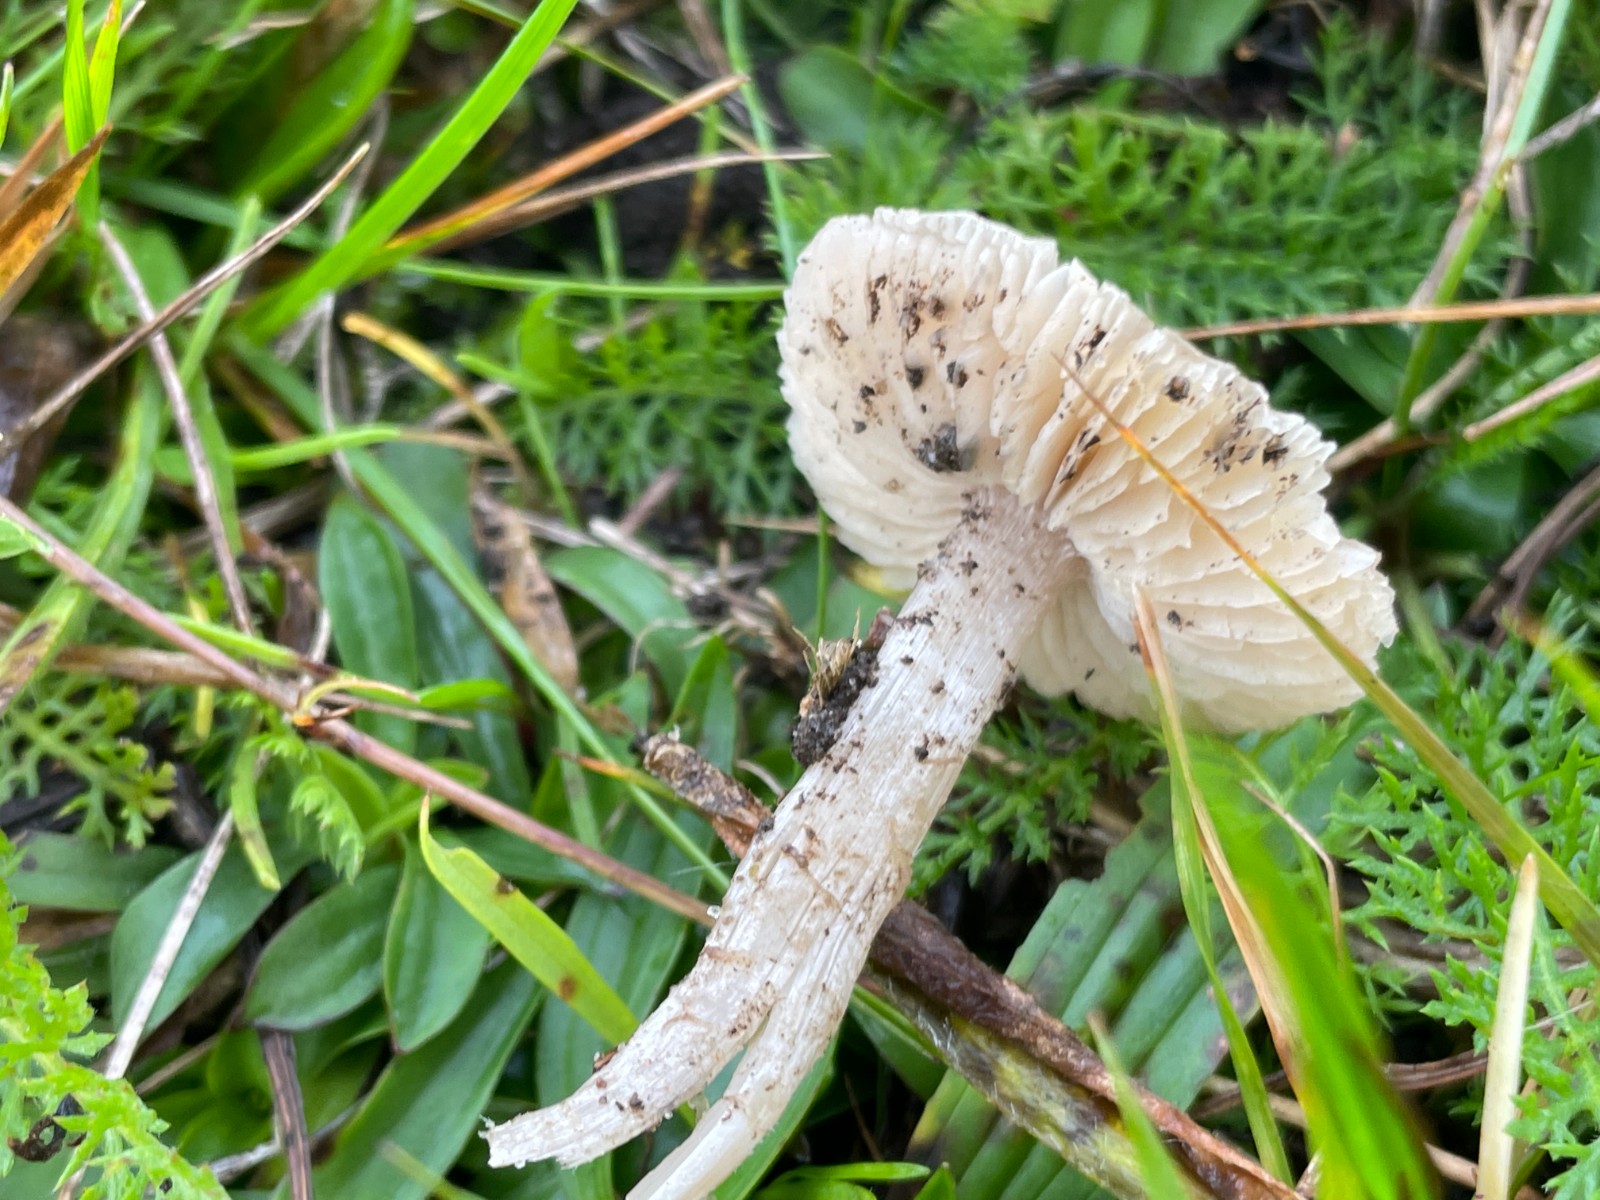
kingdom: Fungi
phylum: Basidiomycota
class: Agaricomycetes
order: Agaricales
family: Tricholomataceae
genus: Dermoloma
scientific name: Dermoloma cuneifolium
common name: eng-nonnehat
